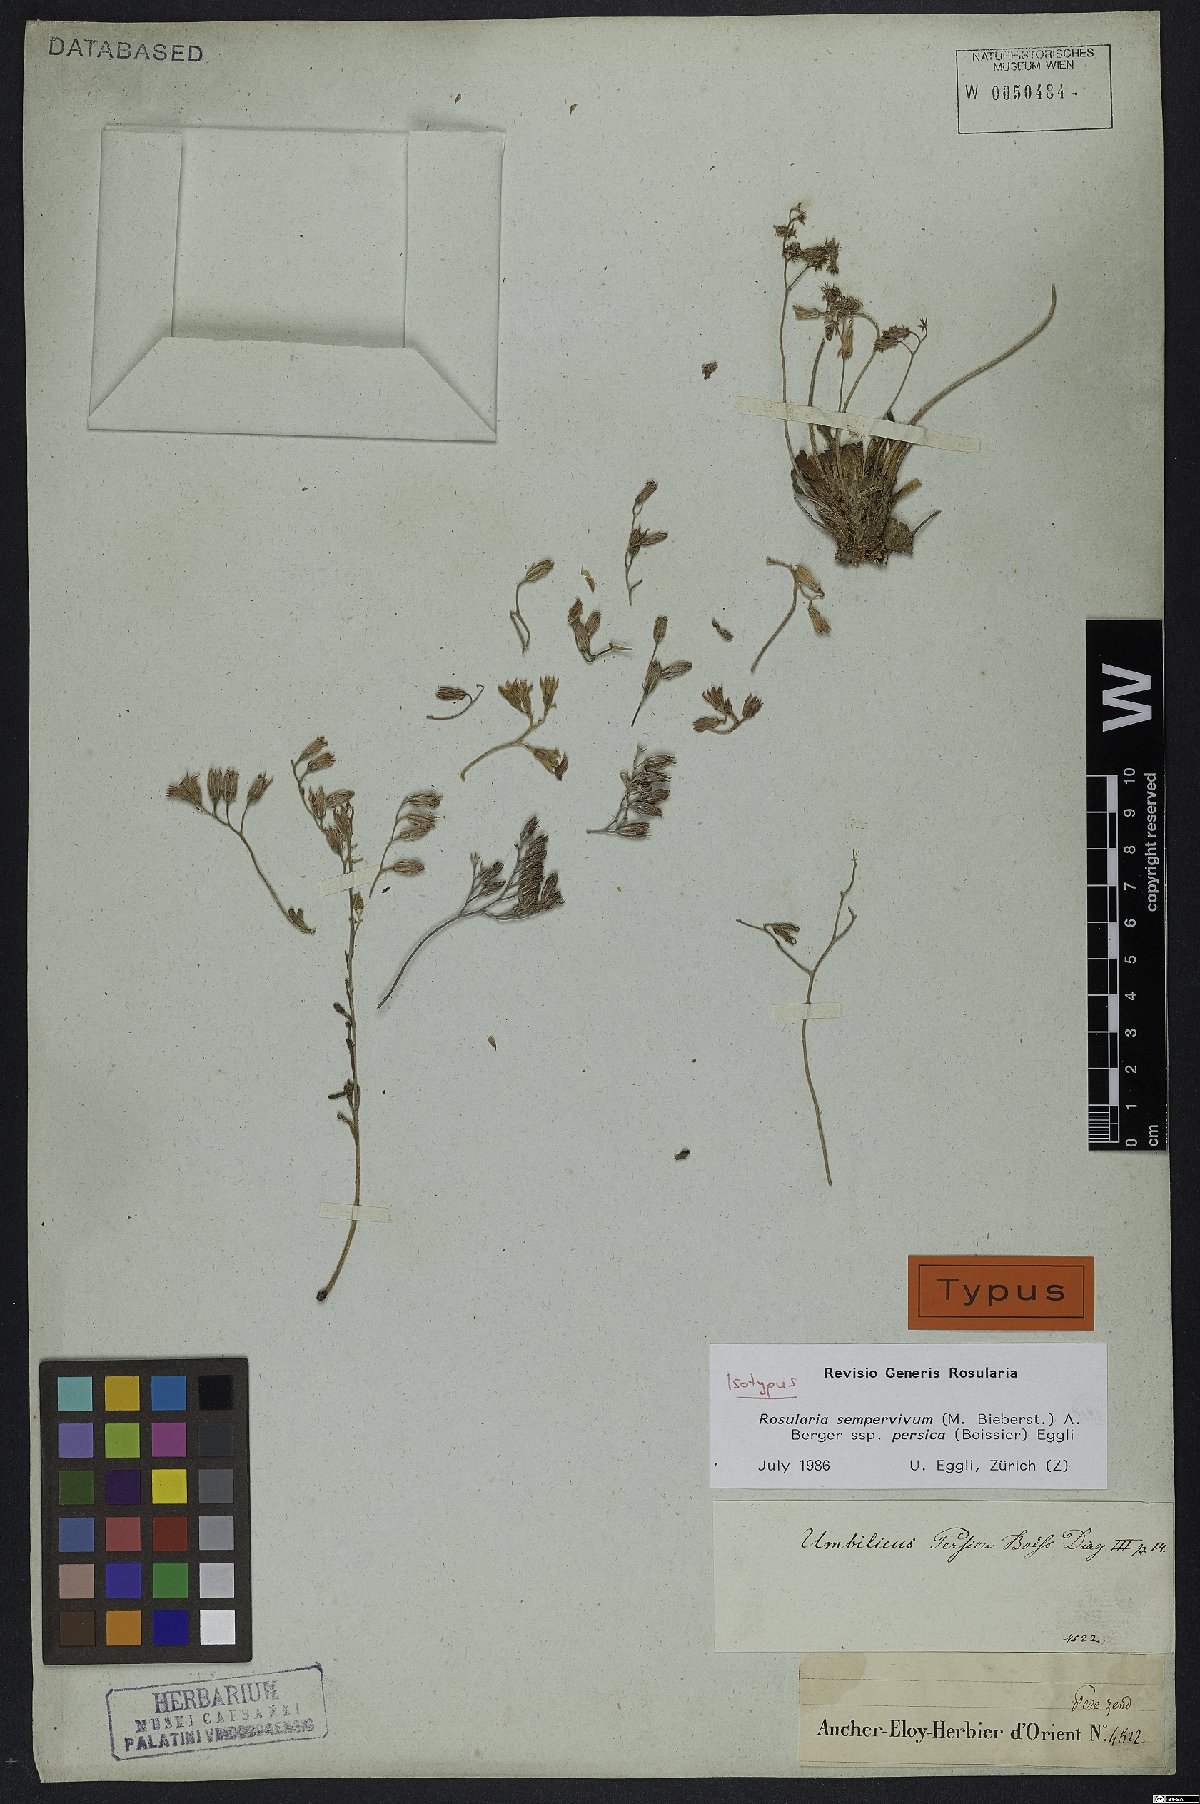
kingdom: Plantae
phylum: Tracheophyta
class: Magnoliopsida
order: Saxifragales
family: Crassulaceae
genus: Rosularia
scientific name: Rosularia sempervivum
